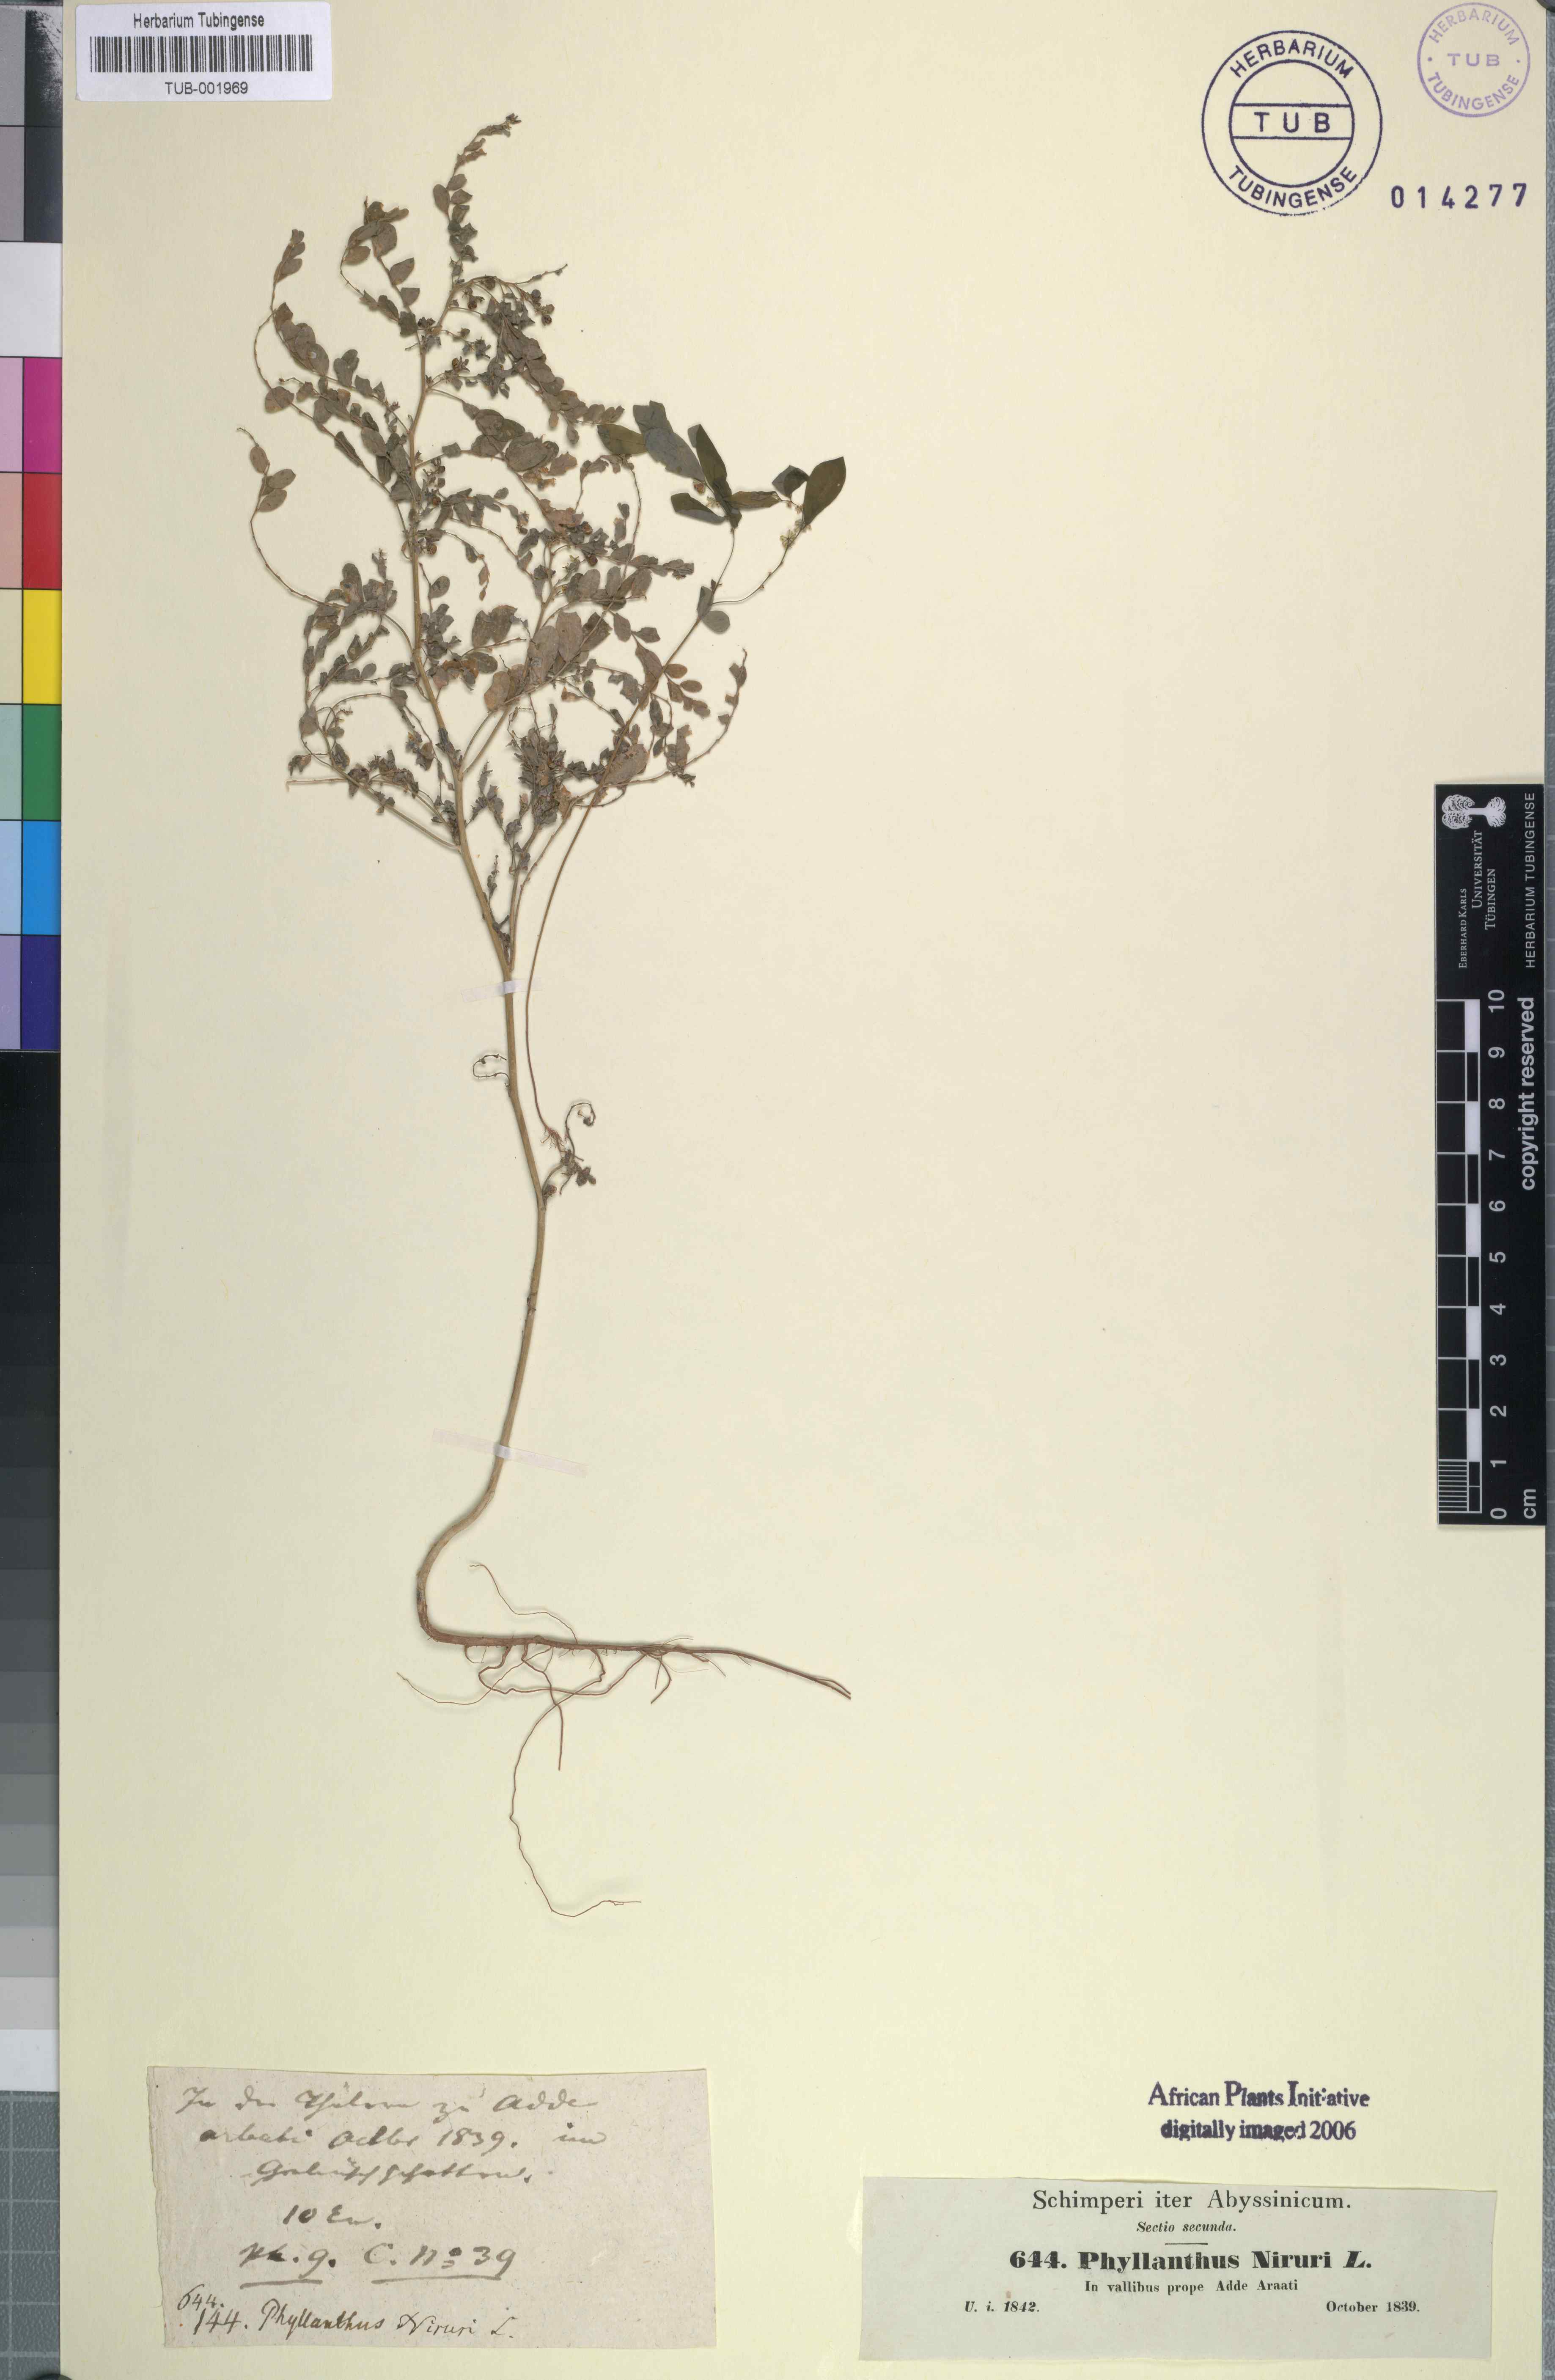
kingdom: Plantae
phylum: Tracheophyta
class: Magnoliopsida
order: Malpighiales
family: Phyllanthaceae
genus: Phyllanthus
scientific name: Phyllanthus niruri
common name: Niruri
